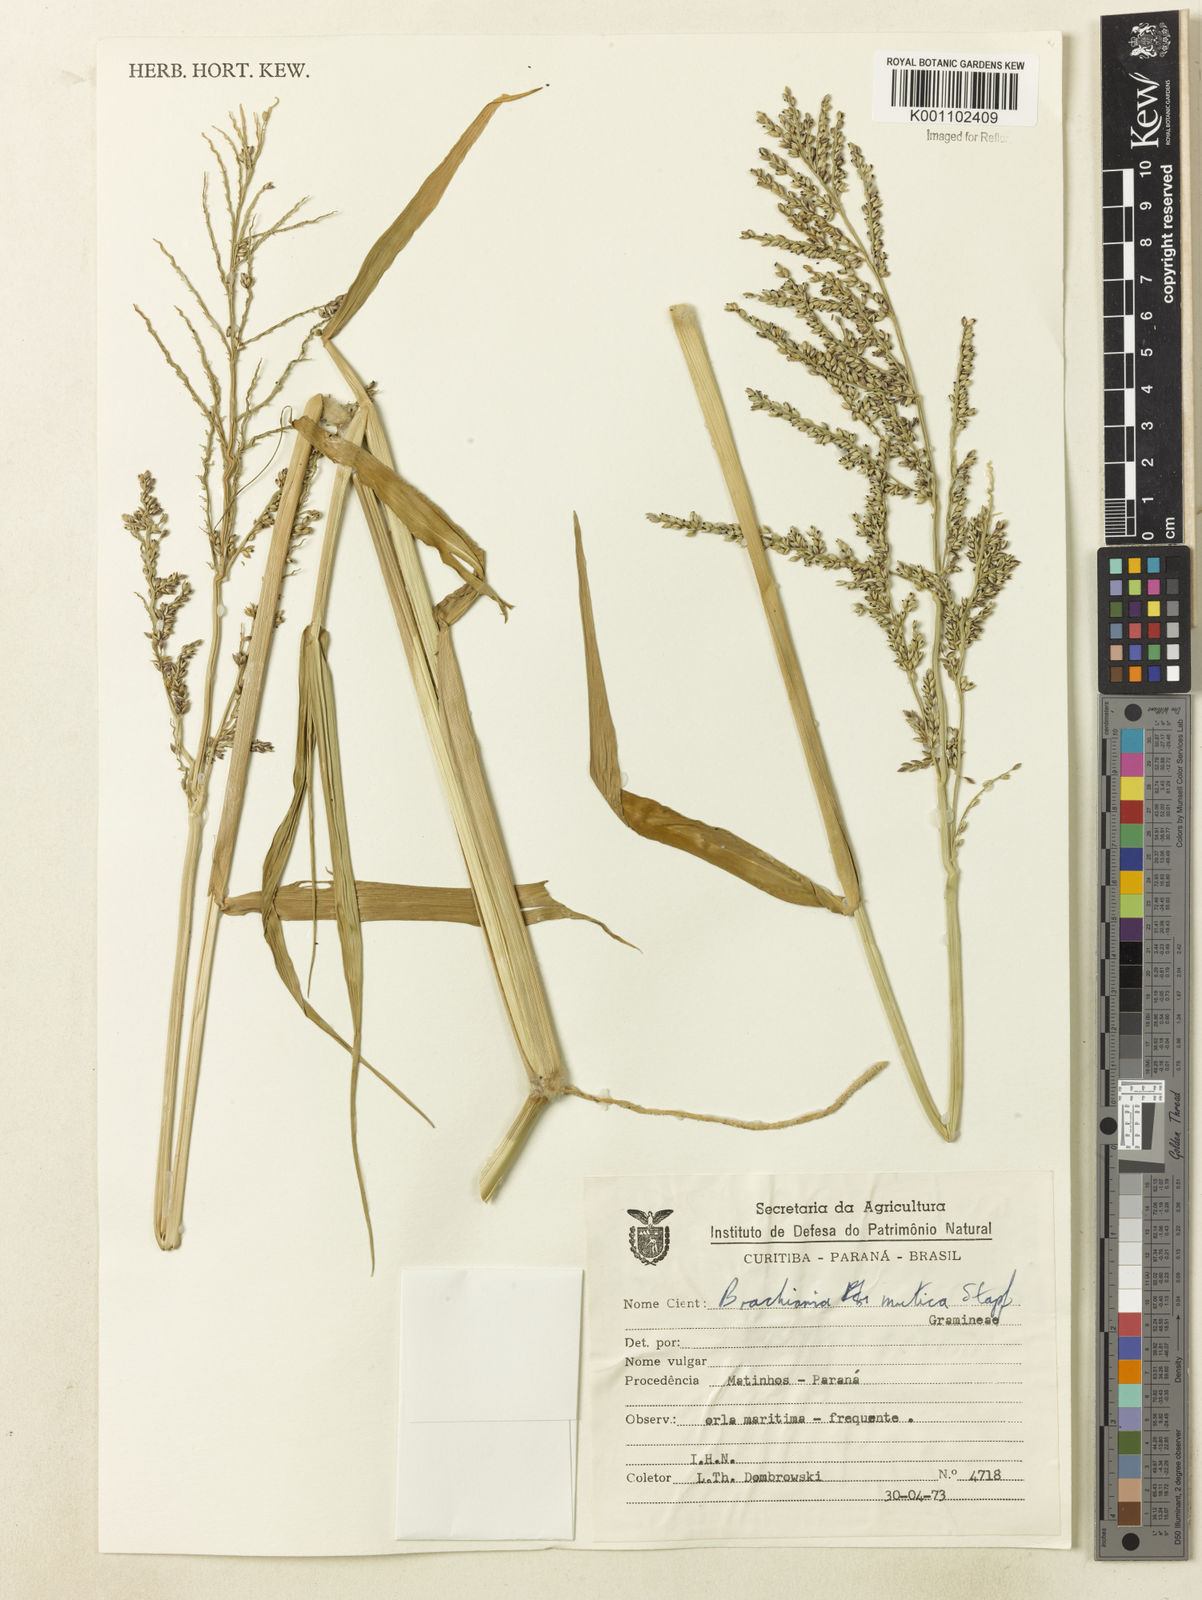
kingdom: Plantae
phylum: Tracheophyta
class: Liliopsida
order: Poales
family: Poaceae
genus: Urochloa
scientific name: Urochloa mutica
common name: Para grass
